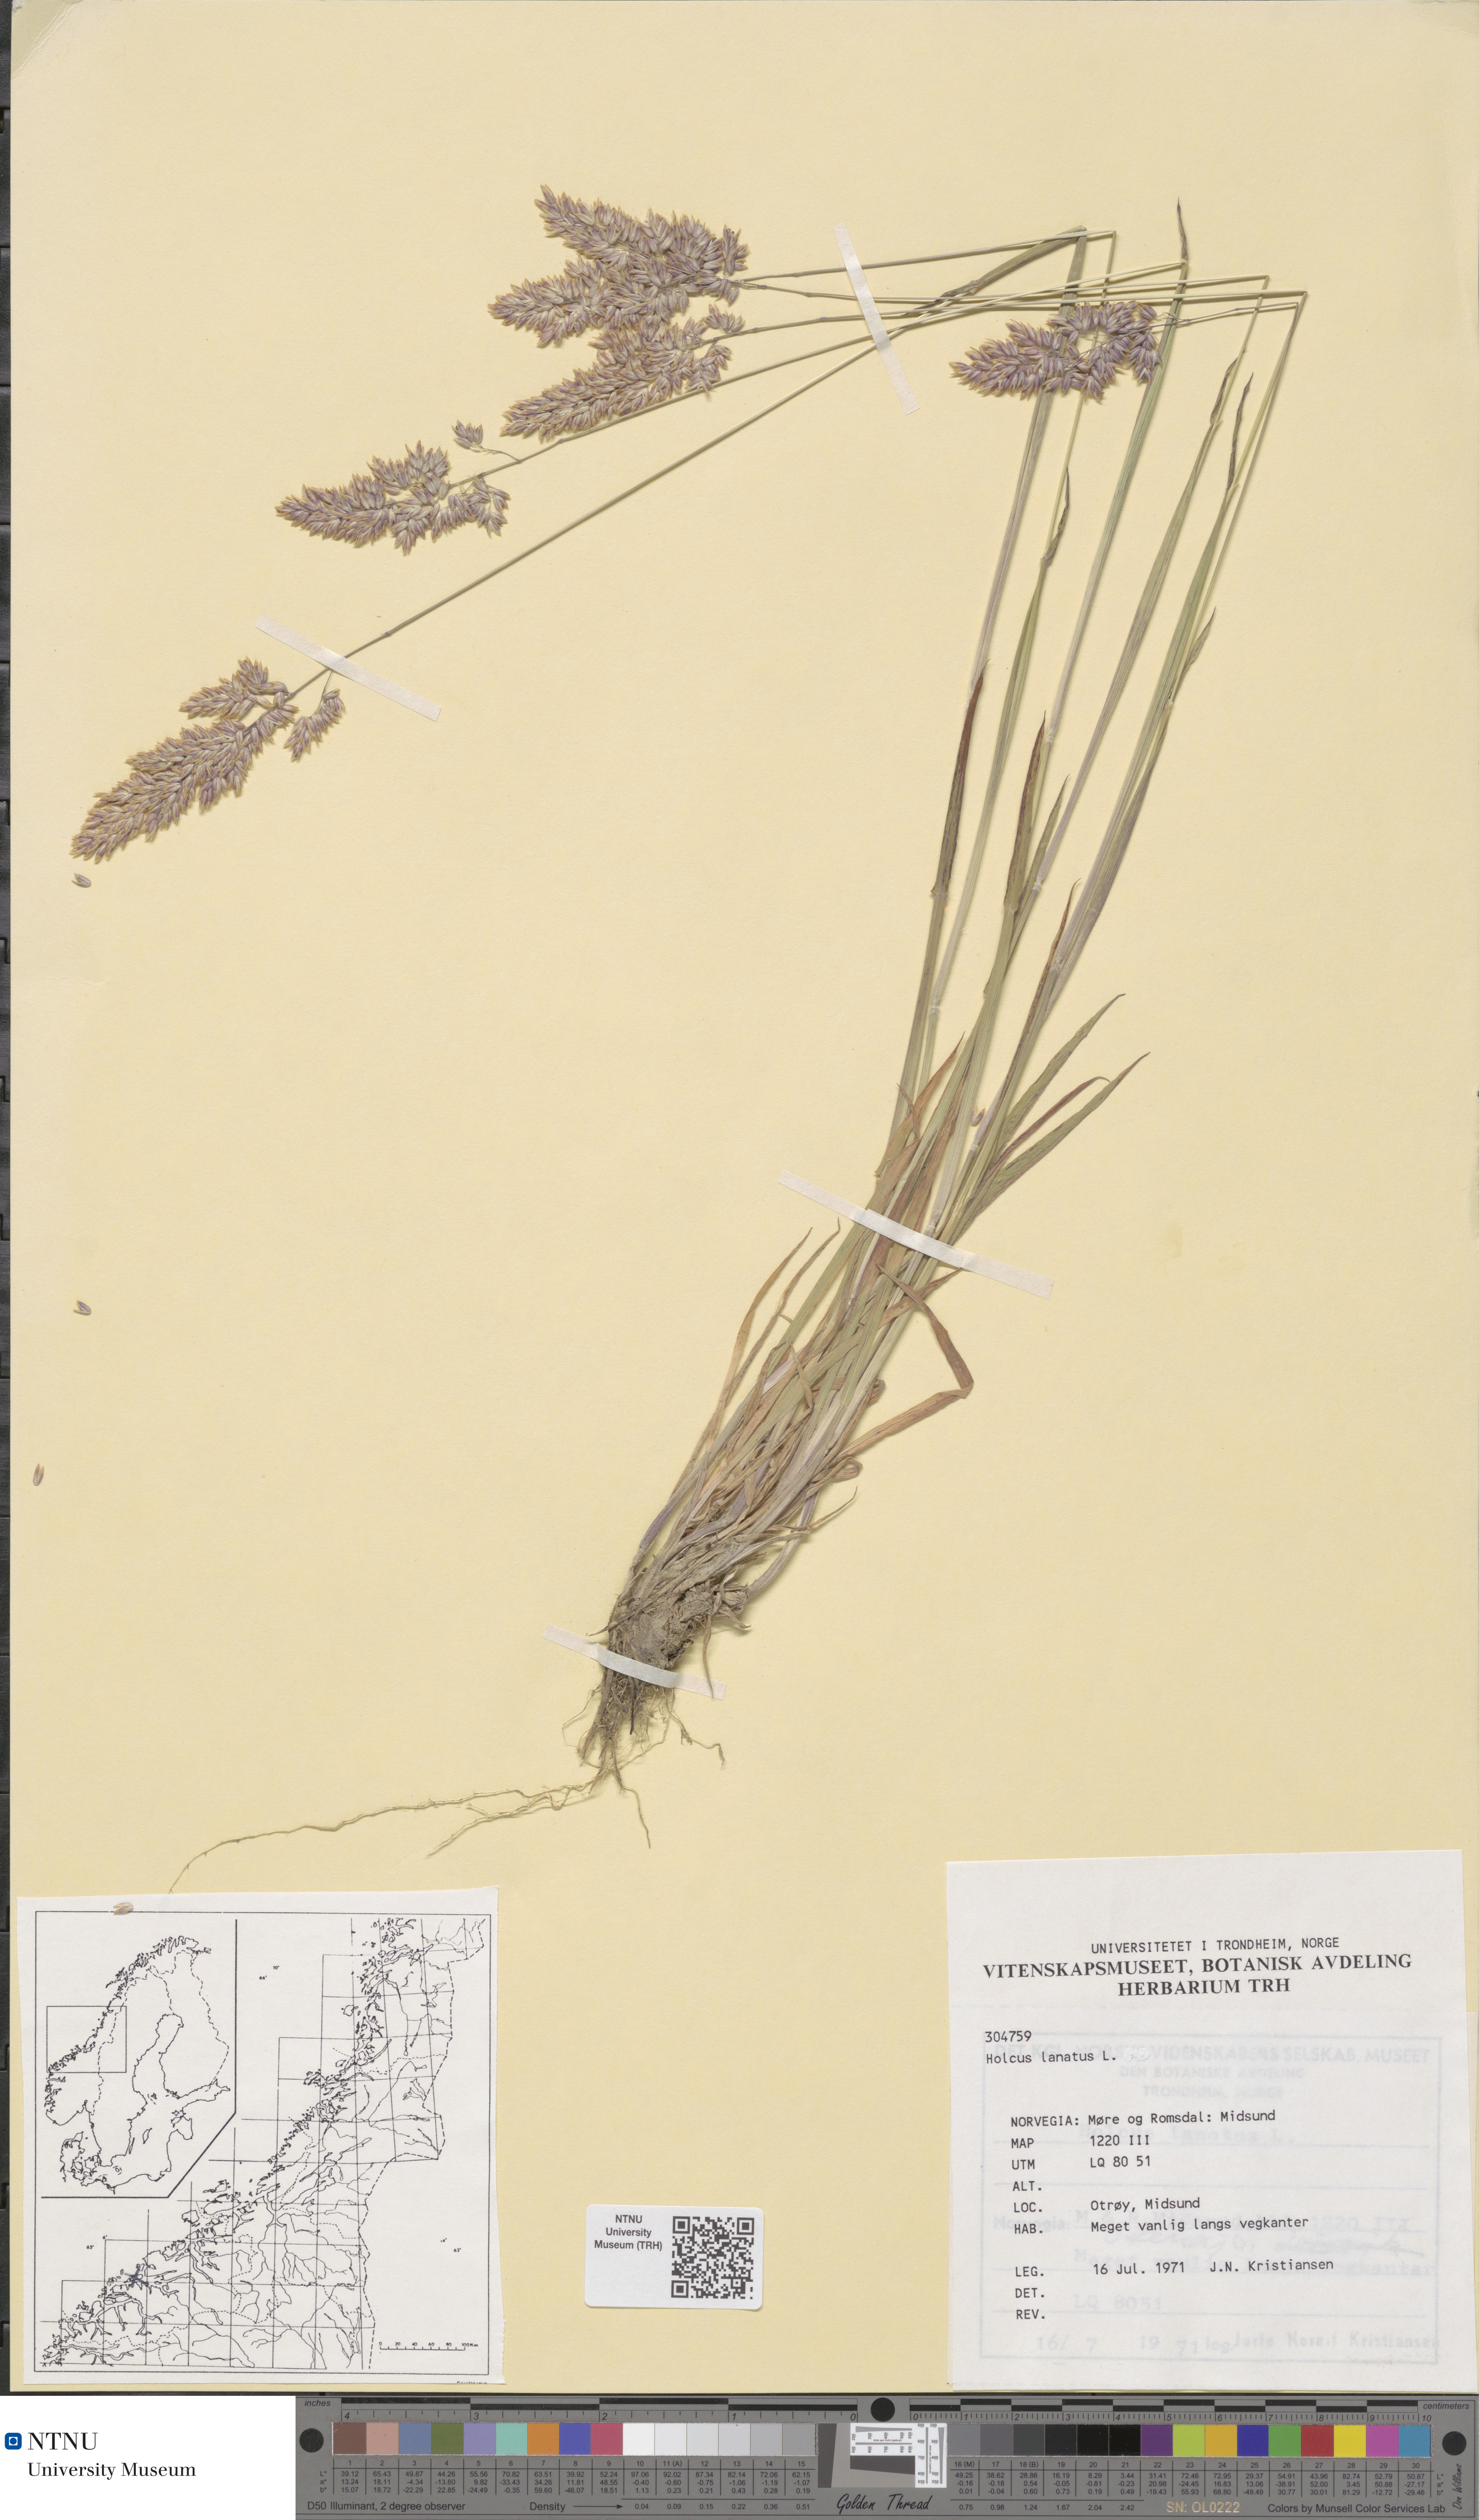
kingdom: Plantae
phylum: Tracheophyta
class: Liliopsida
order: Poales
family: Poaceae
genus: Holcus
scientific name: Holcus lanatus
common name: Yorkshire-fog
